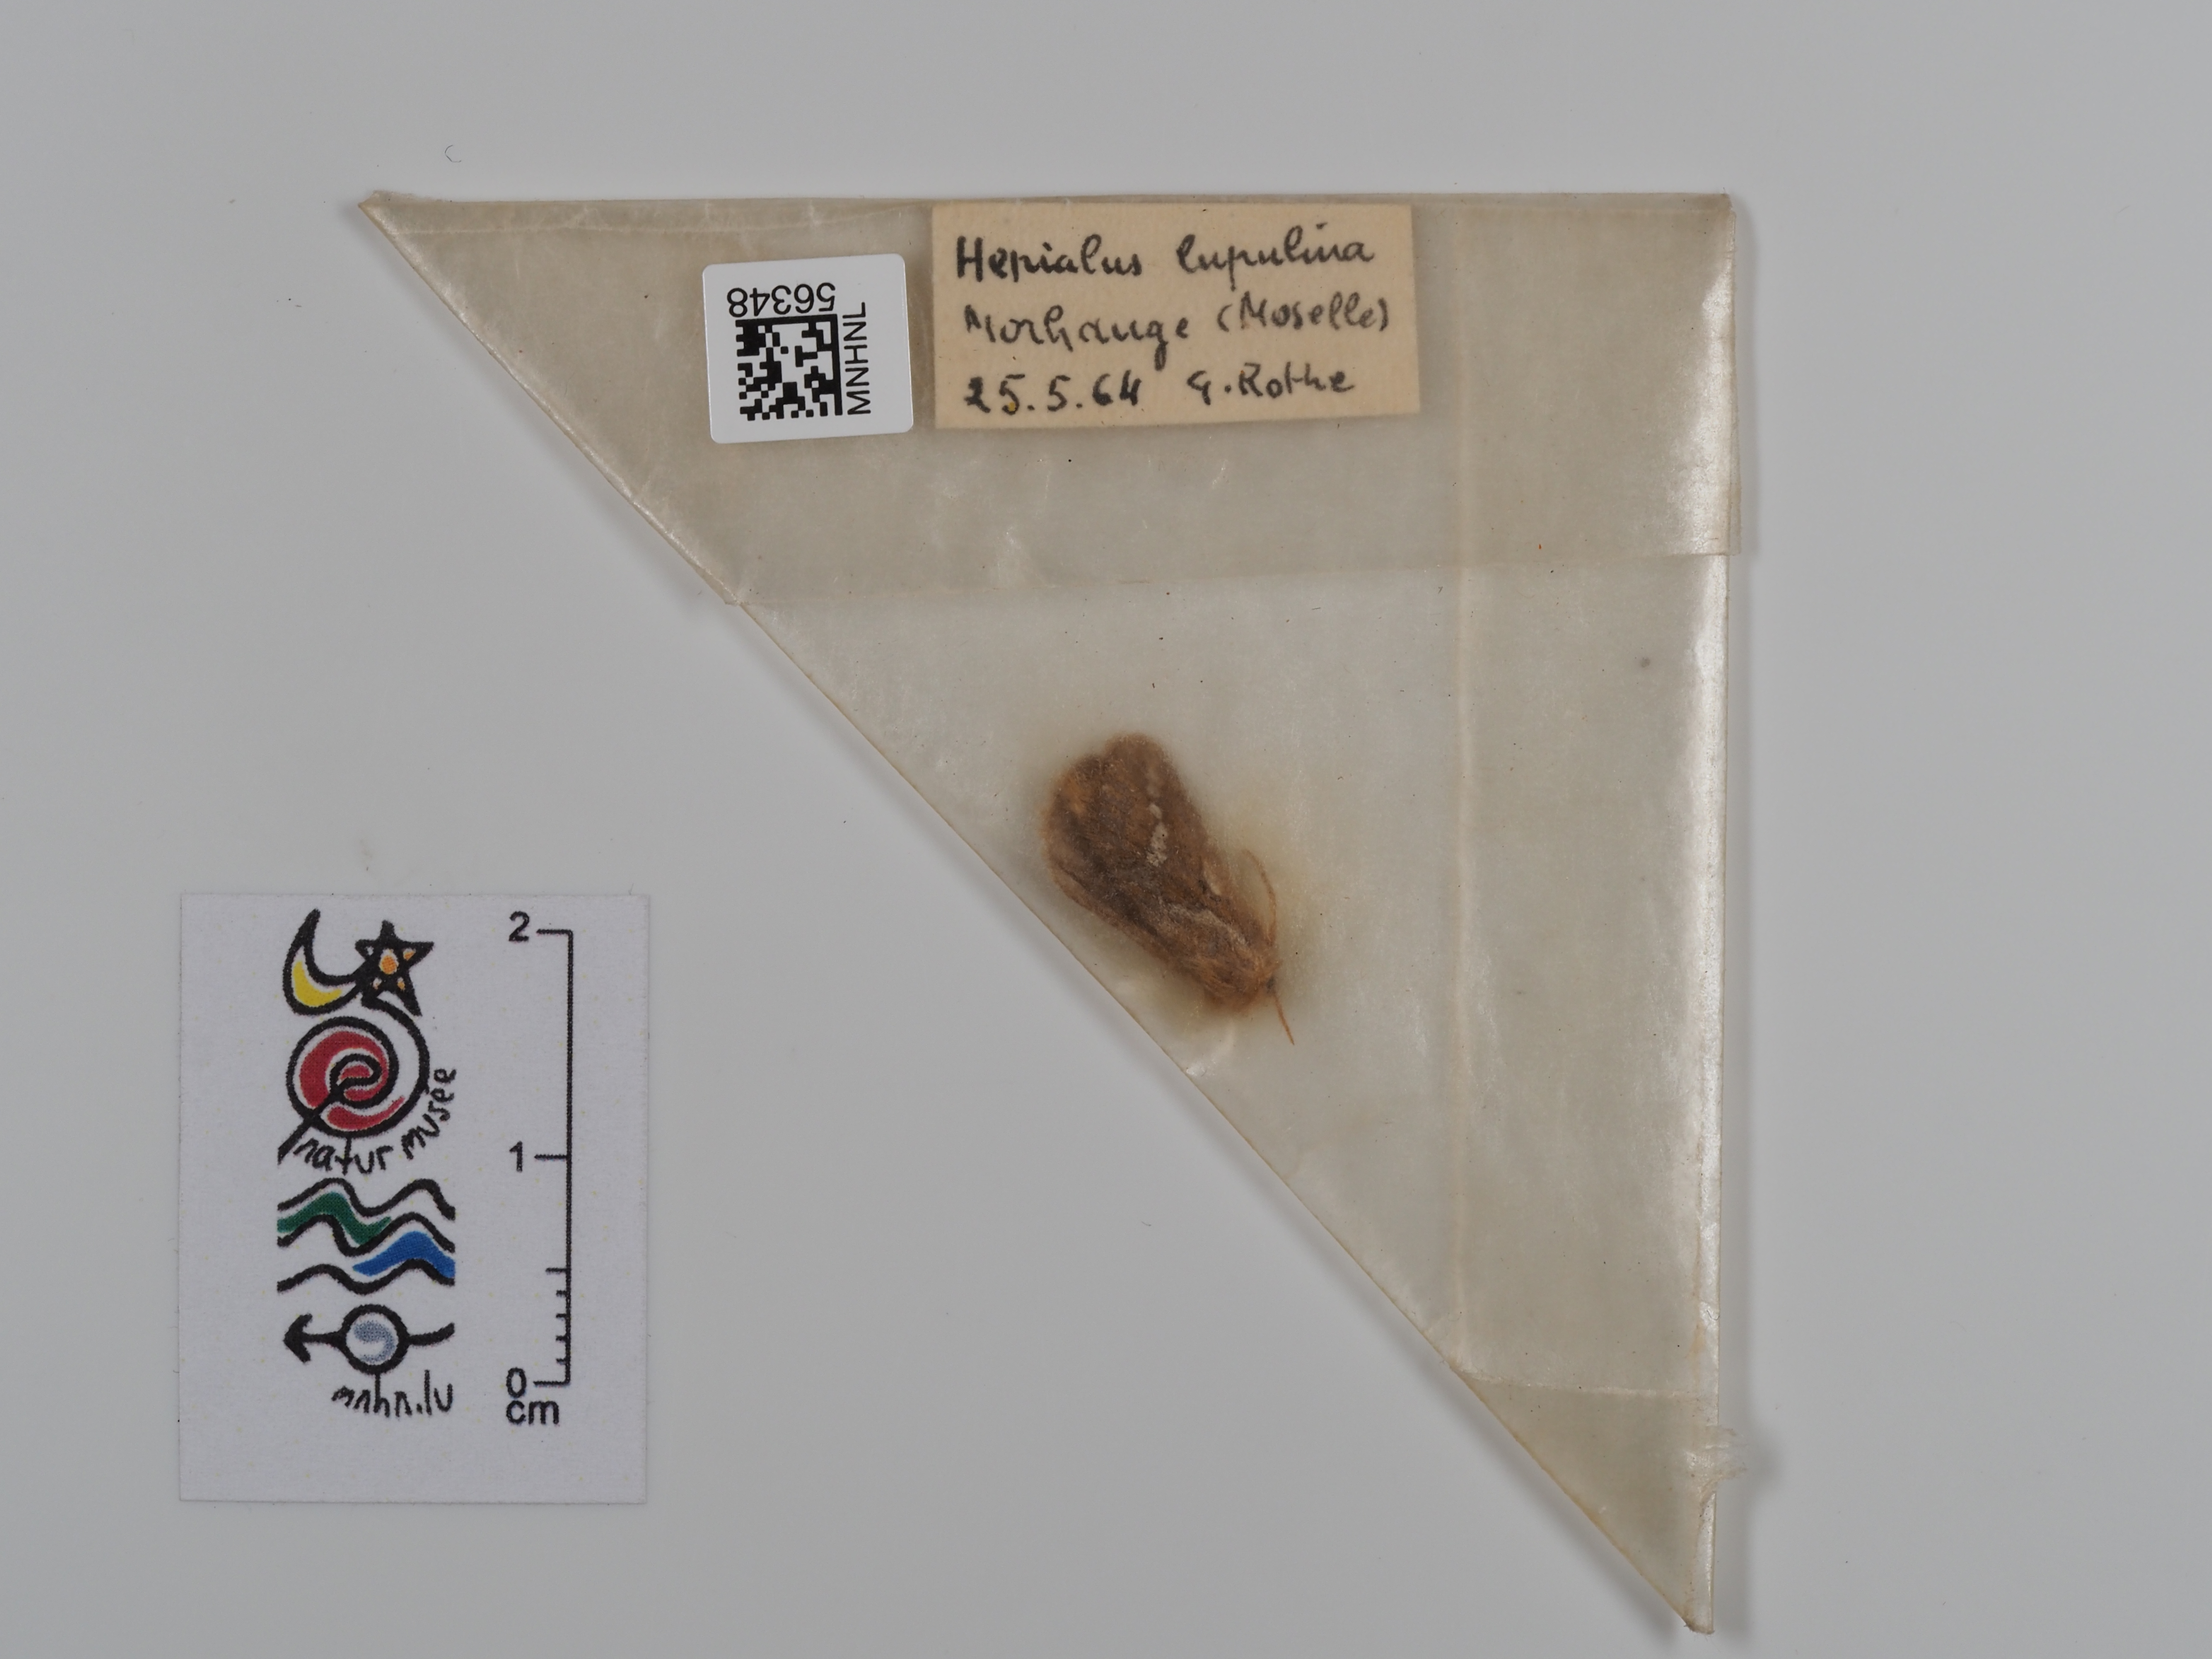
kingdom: Animalia
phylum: Arthropoda
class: Insecta
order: Lepidoptera
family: Hepialidae
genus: Korscheltellus
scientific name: Korscheltellus lupulina
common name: Common swift
